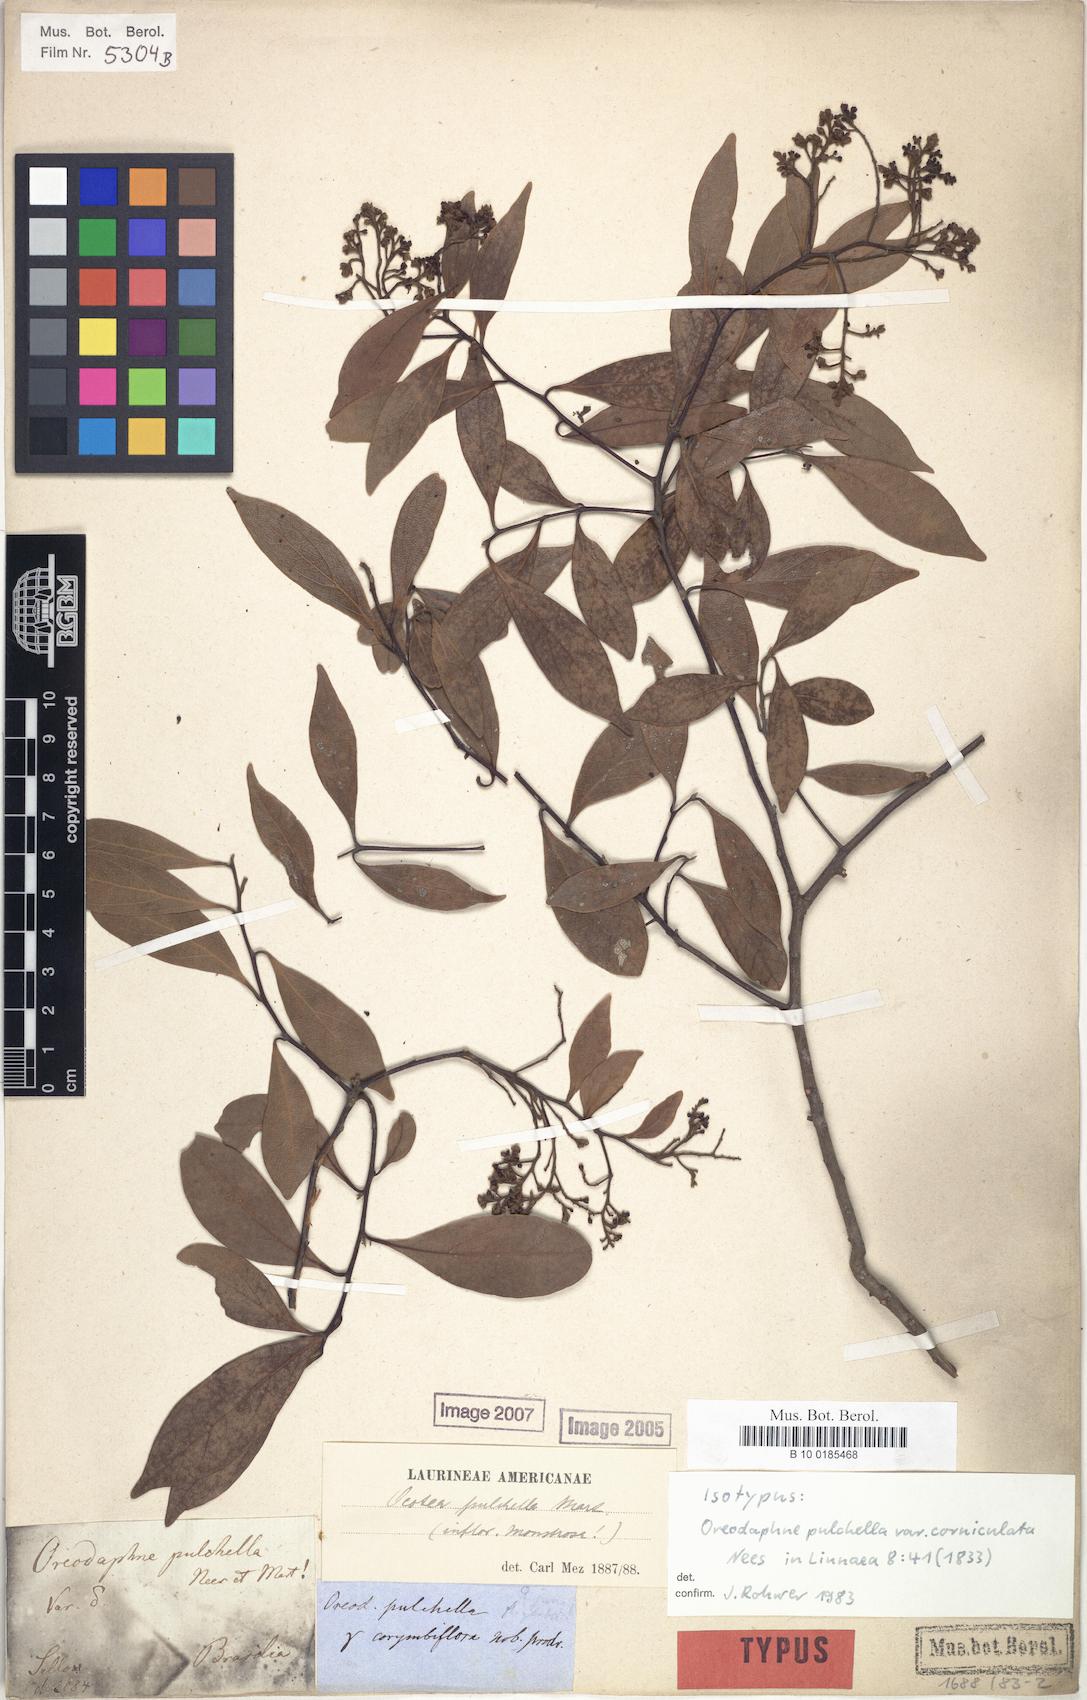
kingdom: Plantae
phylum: Tracheophyta
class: Magnoliopsida
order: Laurales
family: Lauraceae
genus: Mespilodaphne
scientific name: Mespilodaphne pulchella
